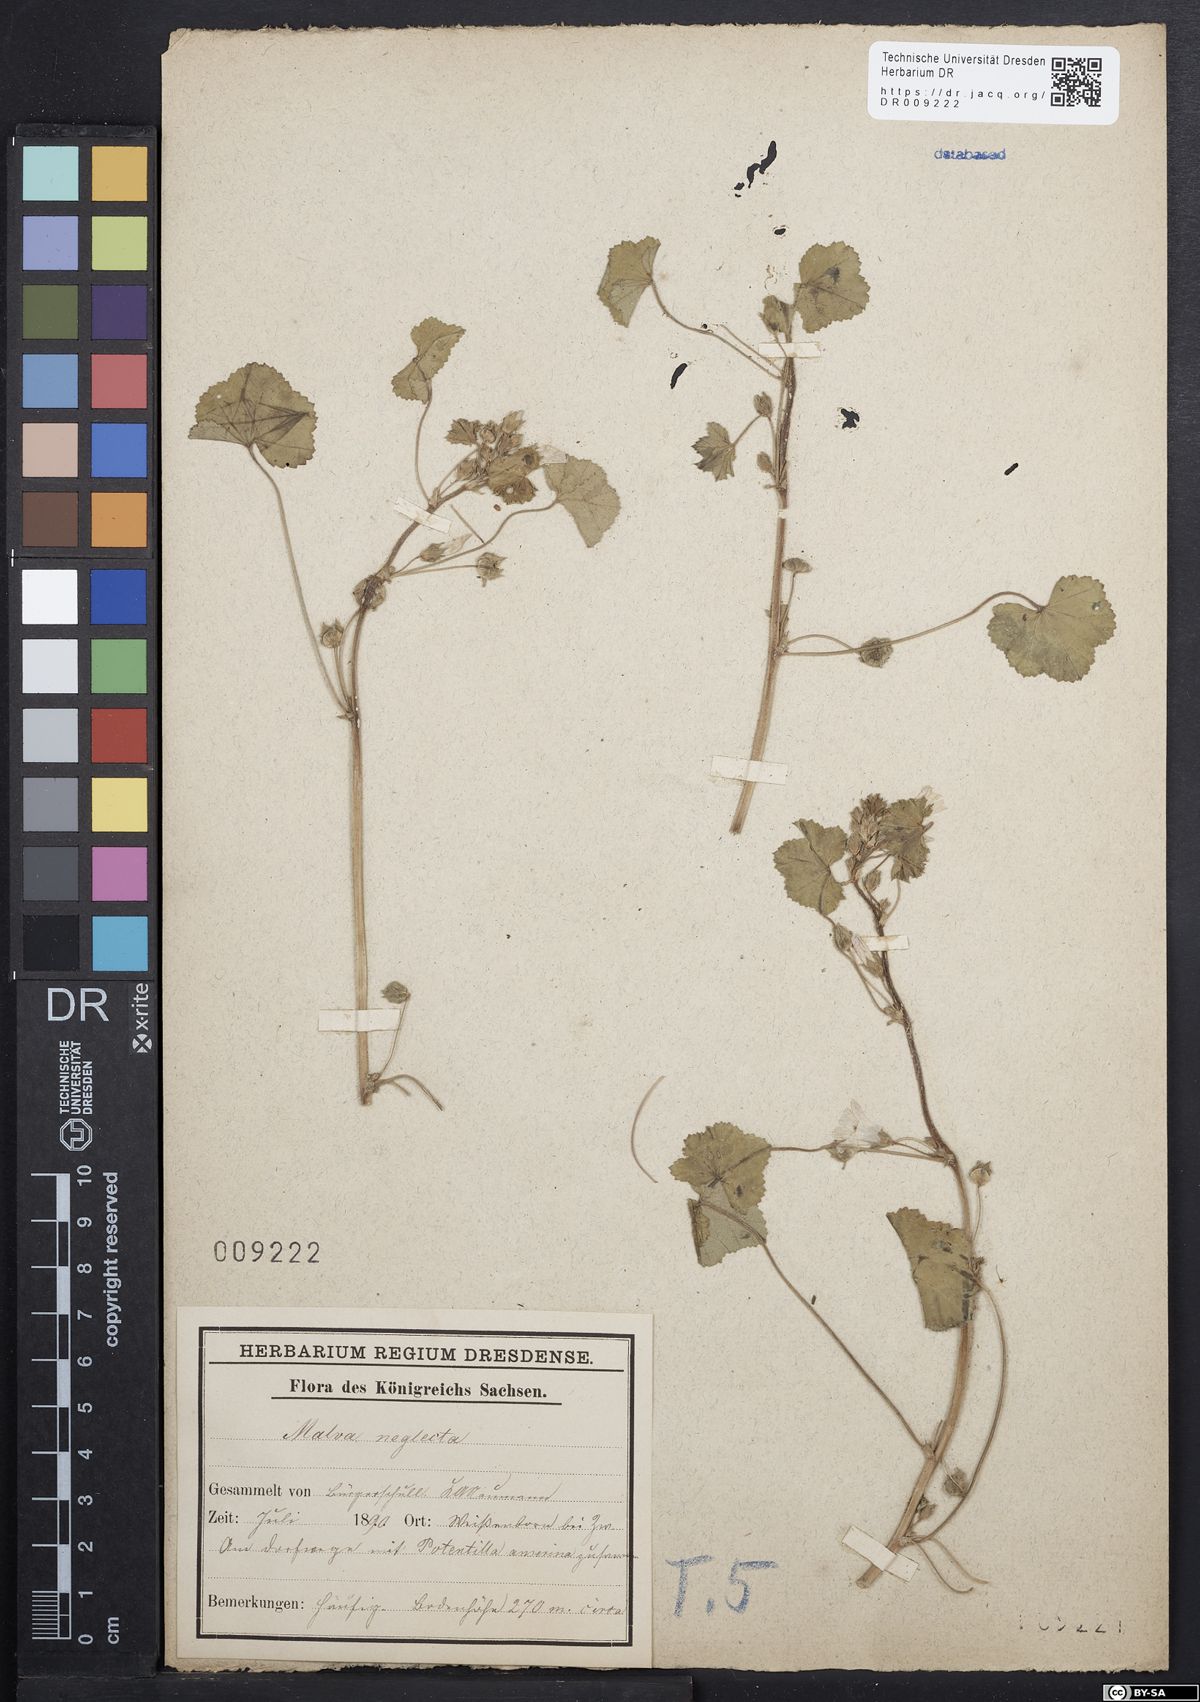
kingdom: Plantae
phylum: Tracheophyta
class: Magnoliopsida
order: Malvales
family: Malvaceae
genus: Malva
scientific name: Malva neglecta
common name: Common mallow
